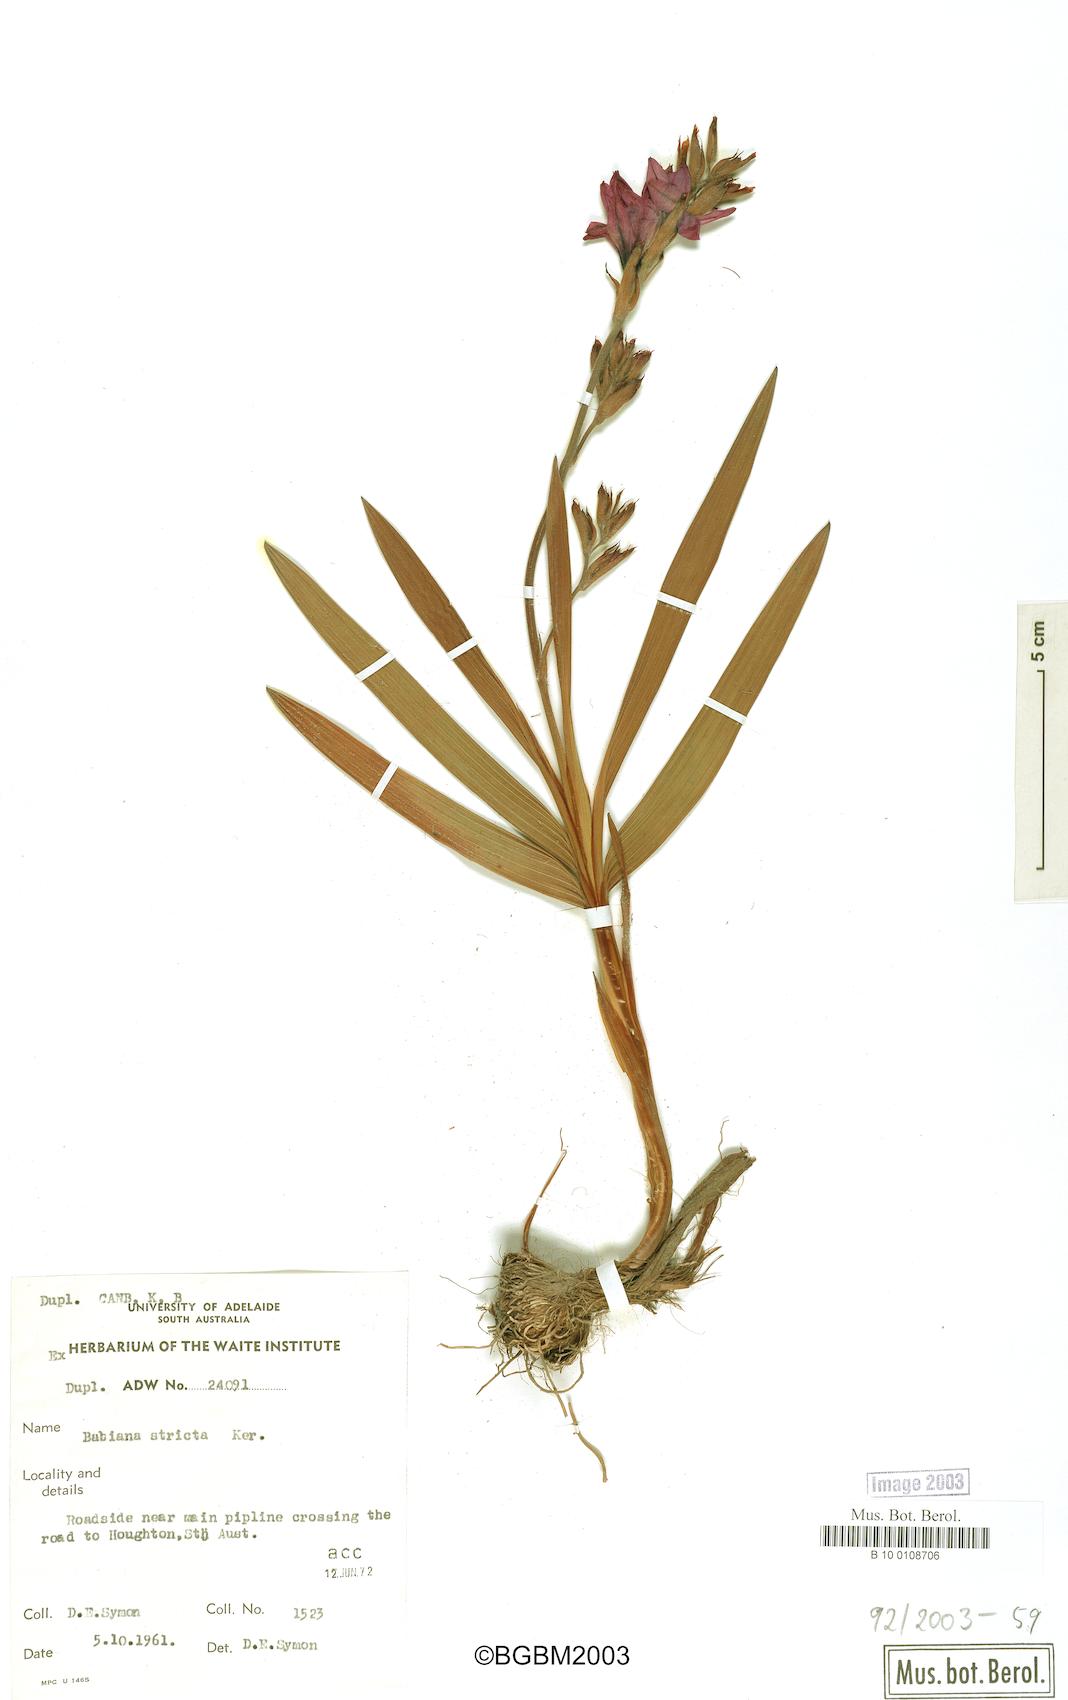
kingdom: Plantae
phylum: Tracheophyta
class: Liliopsida
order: Asparagales
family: Iridaceae
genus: Babiana
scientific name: Babiana nervosa
